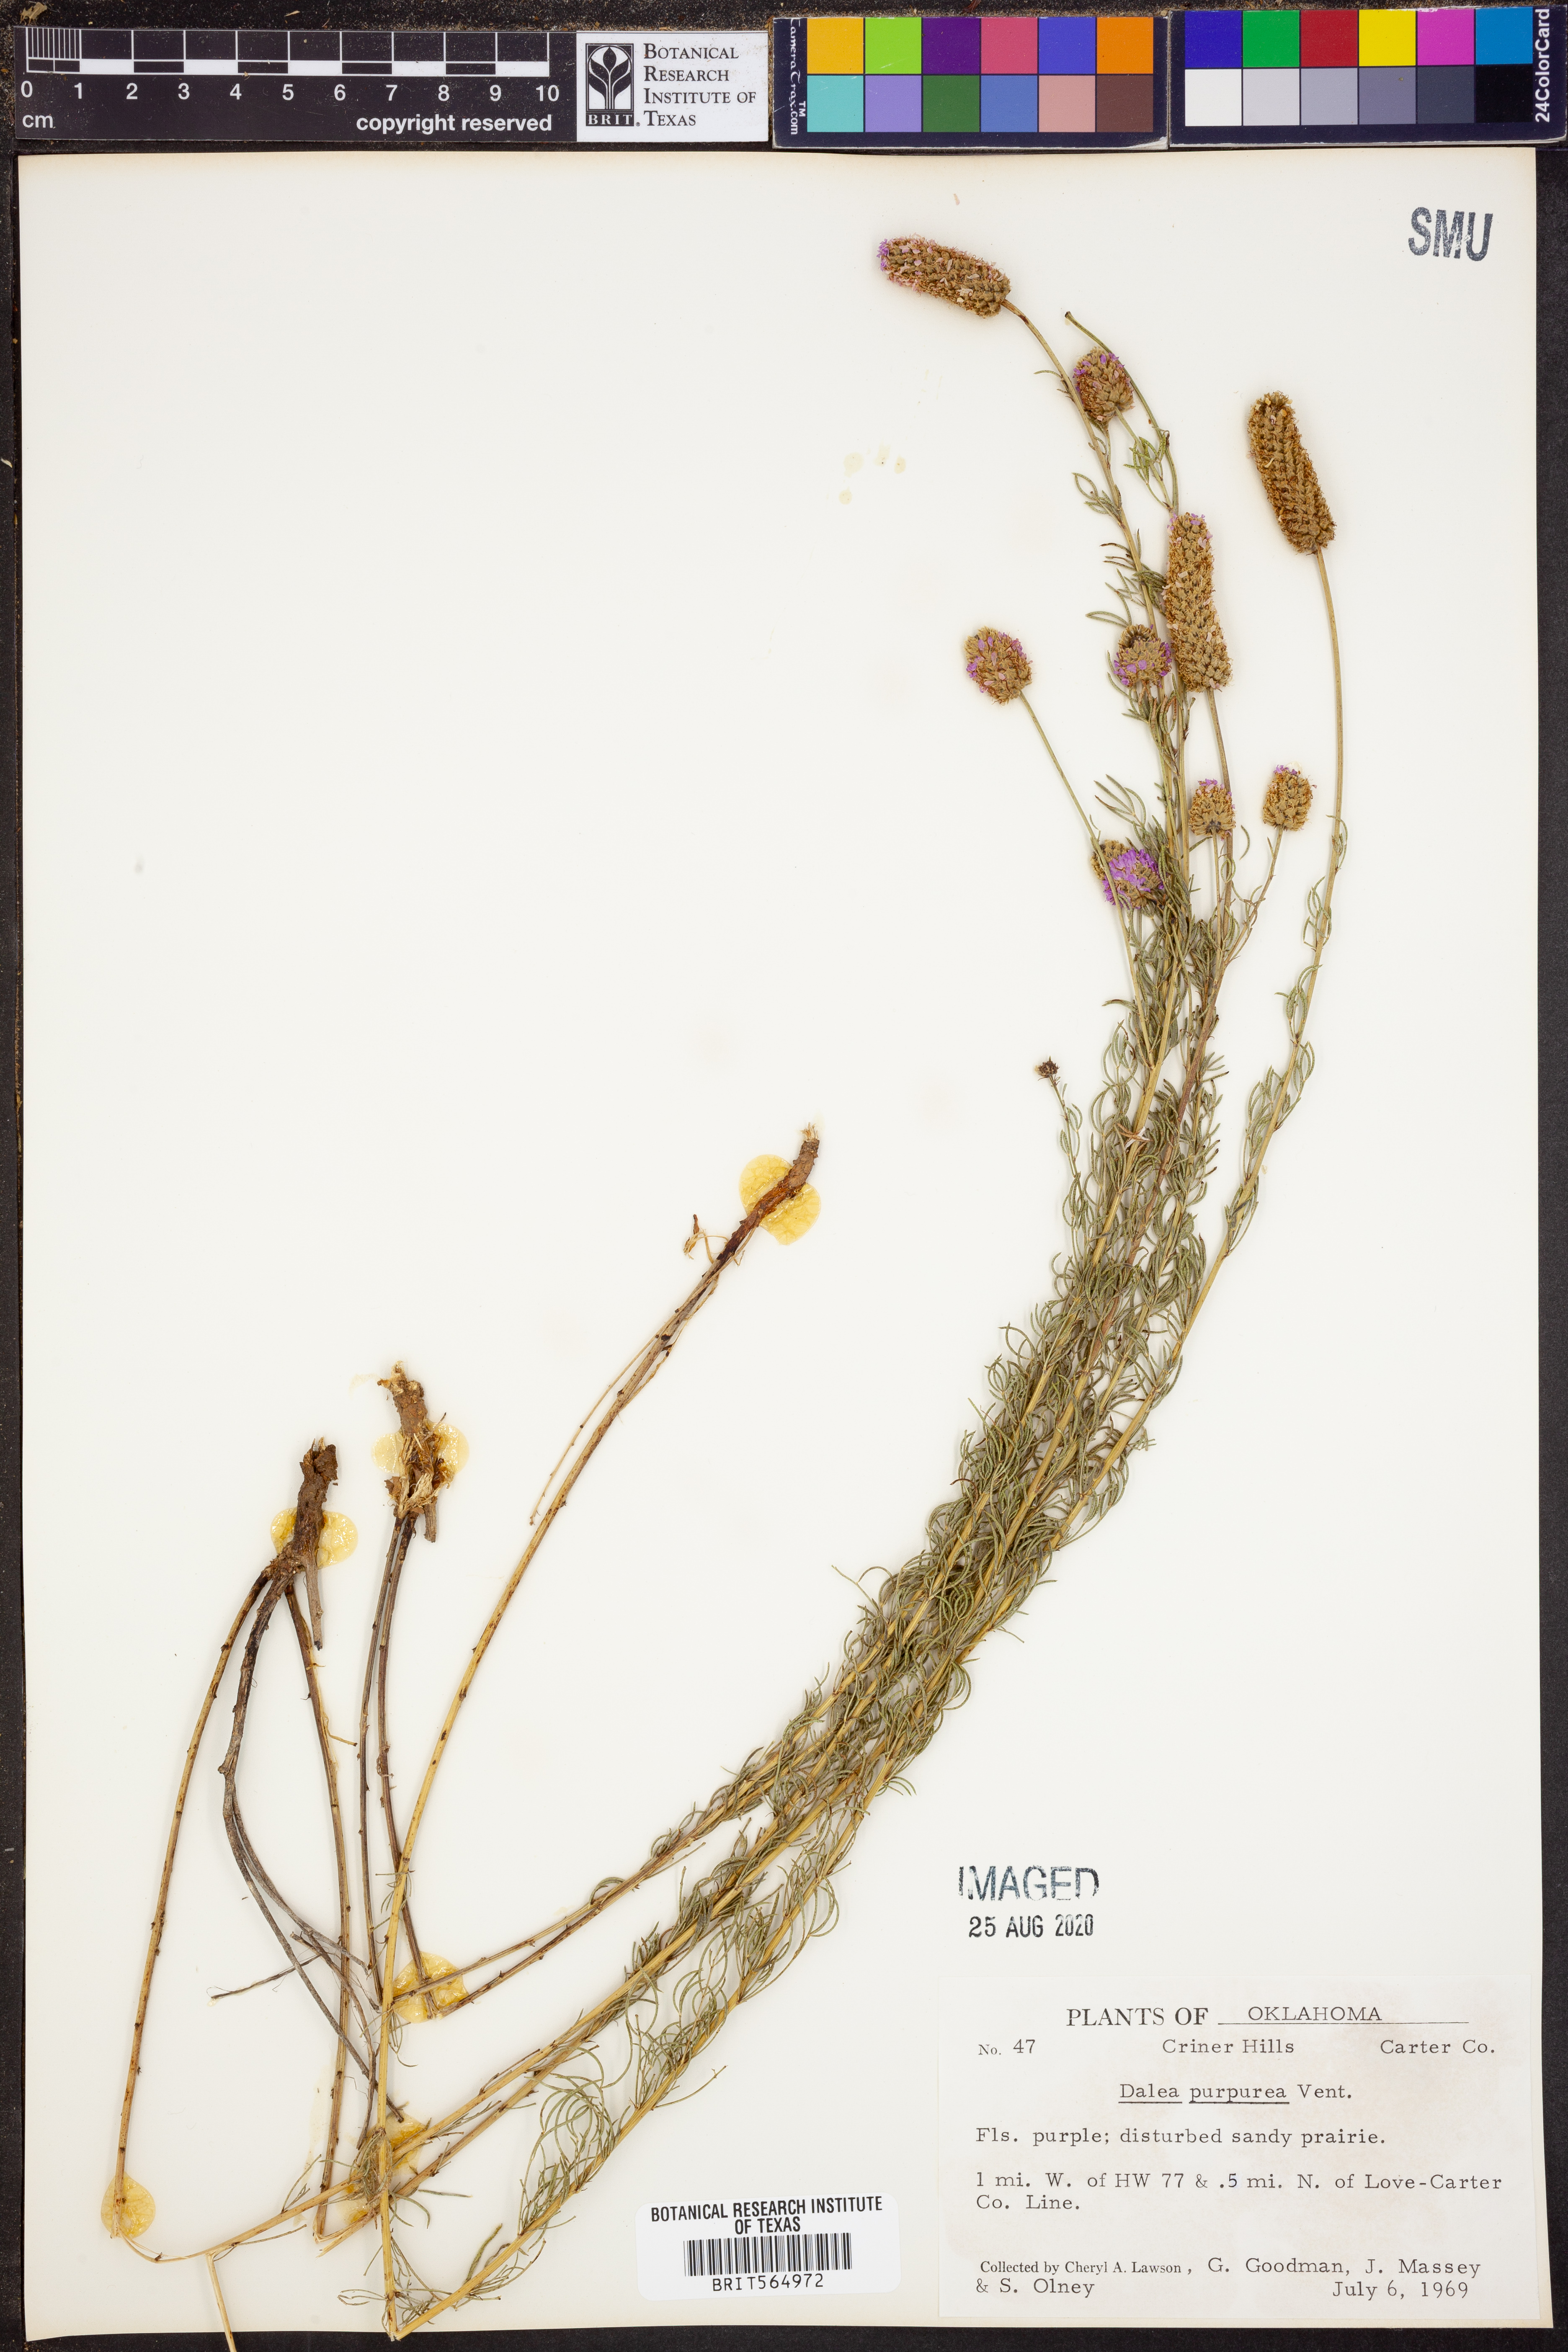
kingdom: Plantae
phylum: Tracheophyta
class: Magnoliopsida
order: Fabales
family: Fabaceae
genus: Dalea
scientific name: Dalea purpurea
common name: Purple prairie-clover
